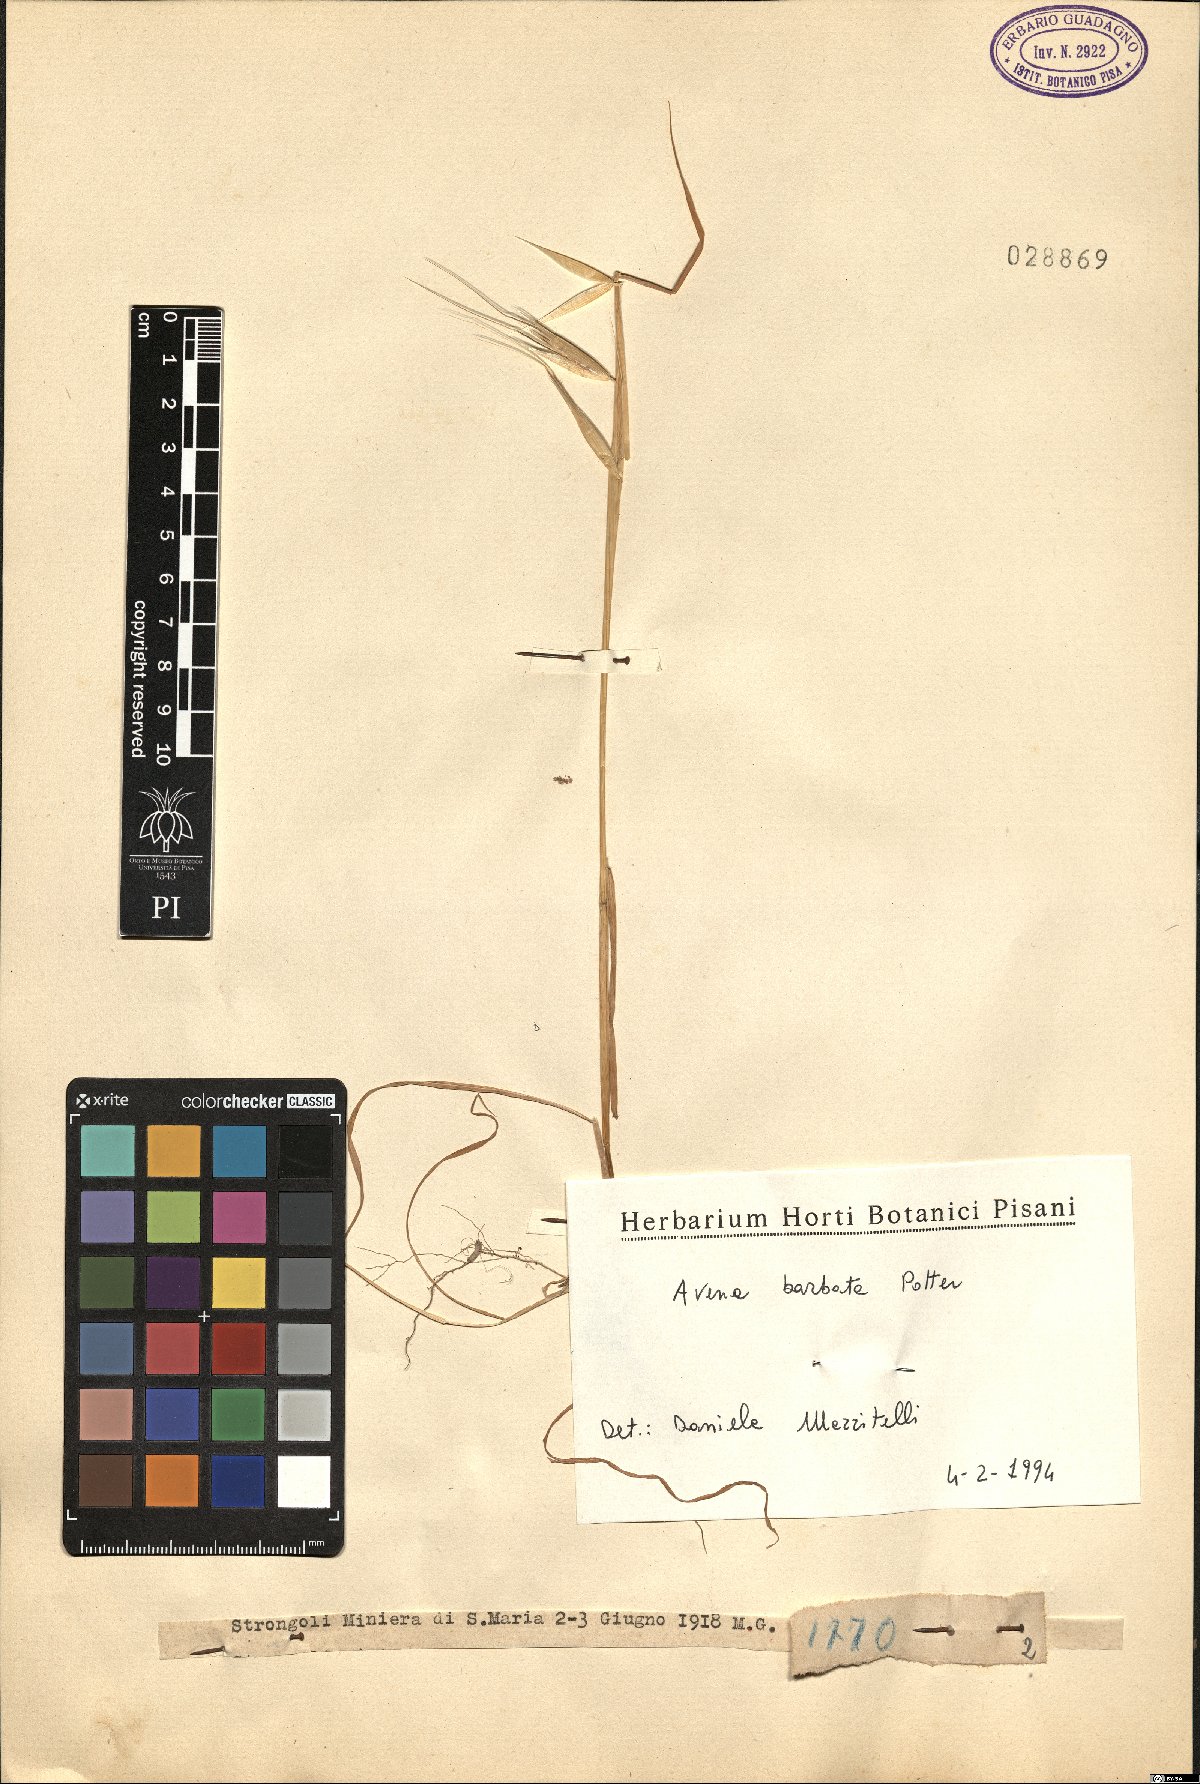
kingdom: Plantae
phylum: Tracheophyta
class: Liliopsida
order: Poales
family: Poaceae
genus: Avena
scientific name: Avena barbata
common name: Slender oat
